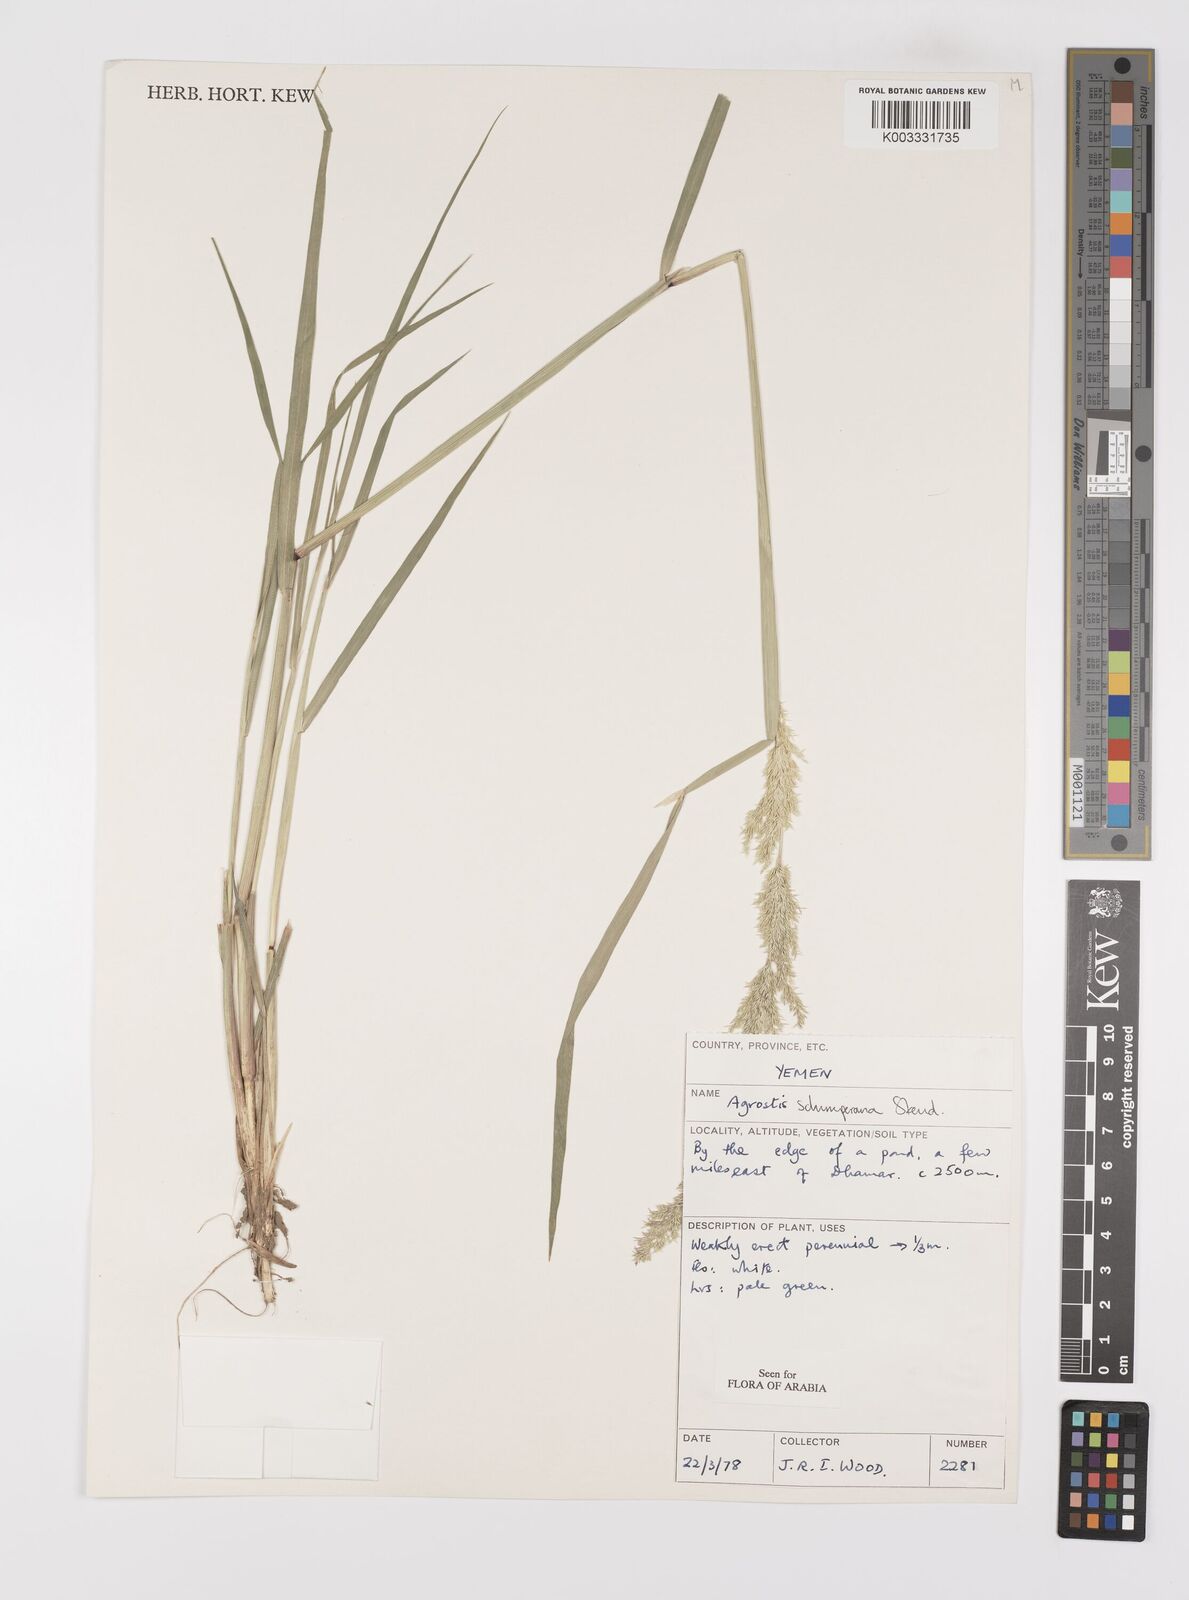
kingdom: Plantae
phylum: Tracheophyta
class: Liliopsida
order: Poales
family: Poaceae
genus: Polypogon
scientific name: Polypogon schimperianus
